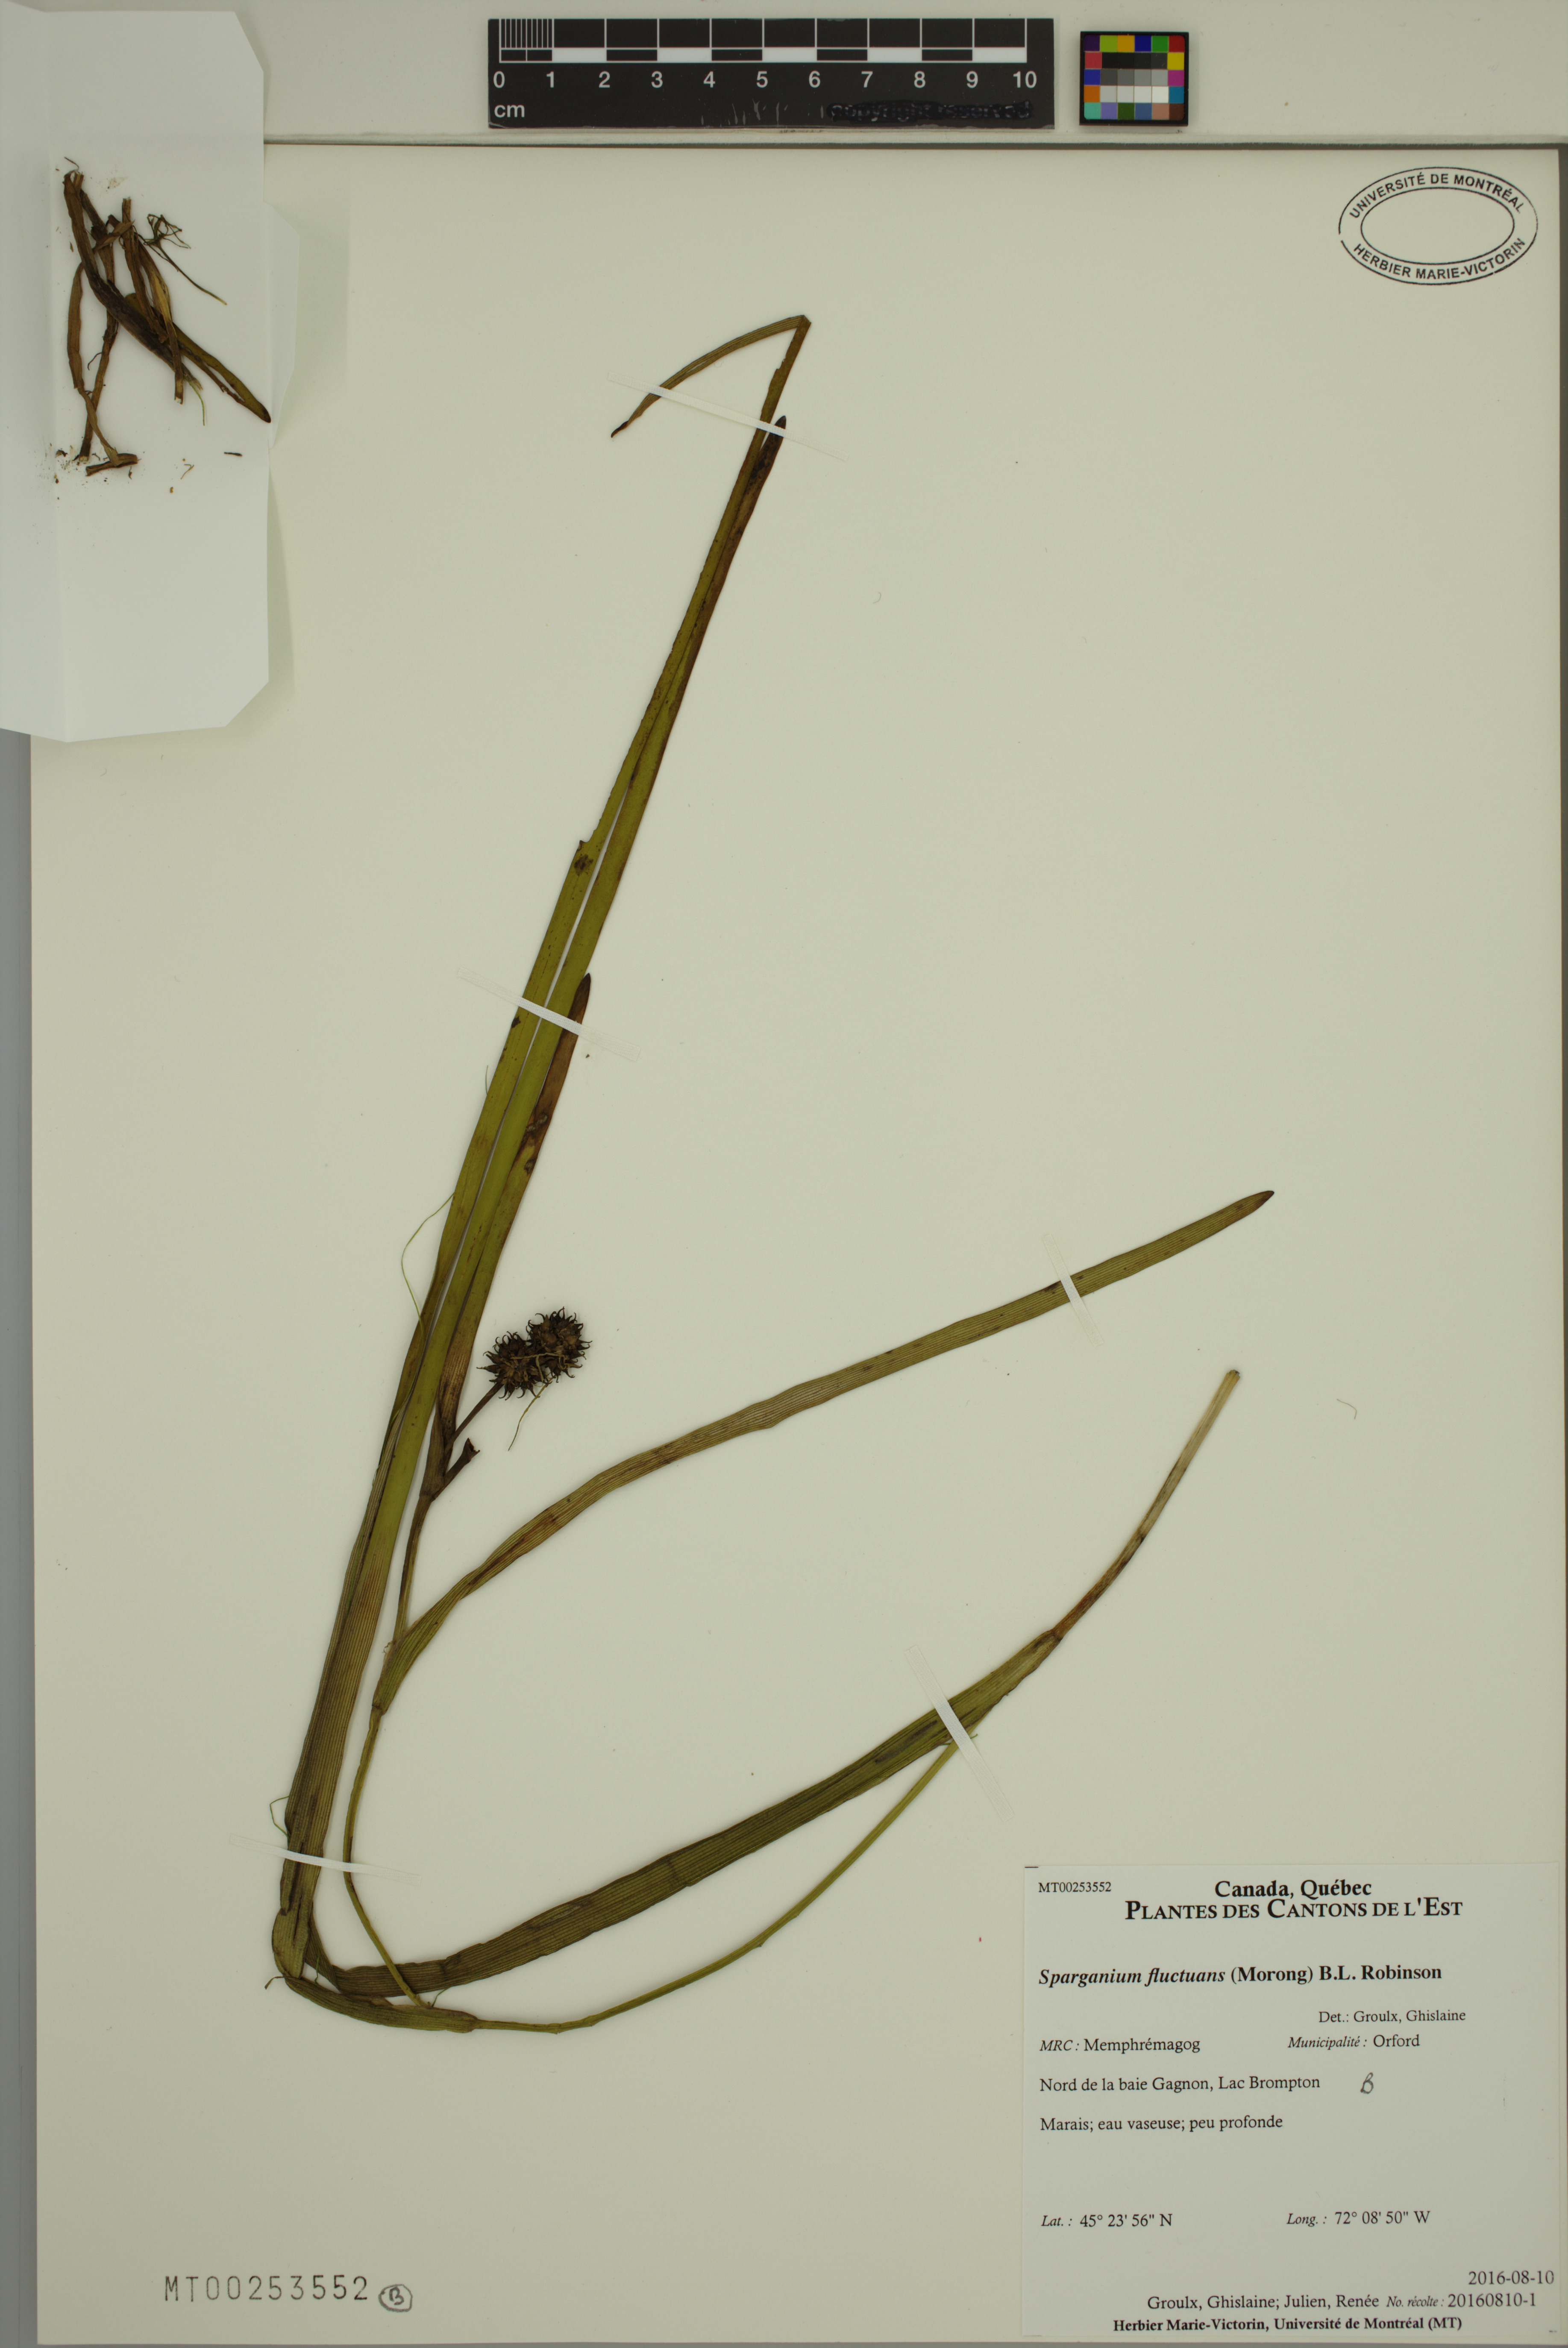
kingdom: Plantae
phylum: Tracheophyta
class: Liliopsida
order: Poales
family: Typhaceae
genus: Sparganium
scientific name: Sparganium fluctuans
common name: Floating burreed
